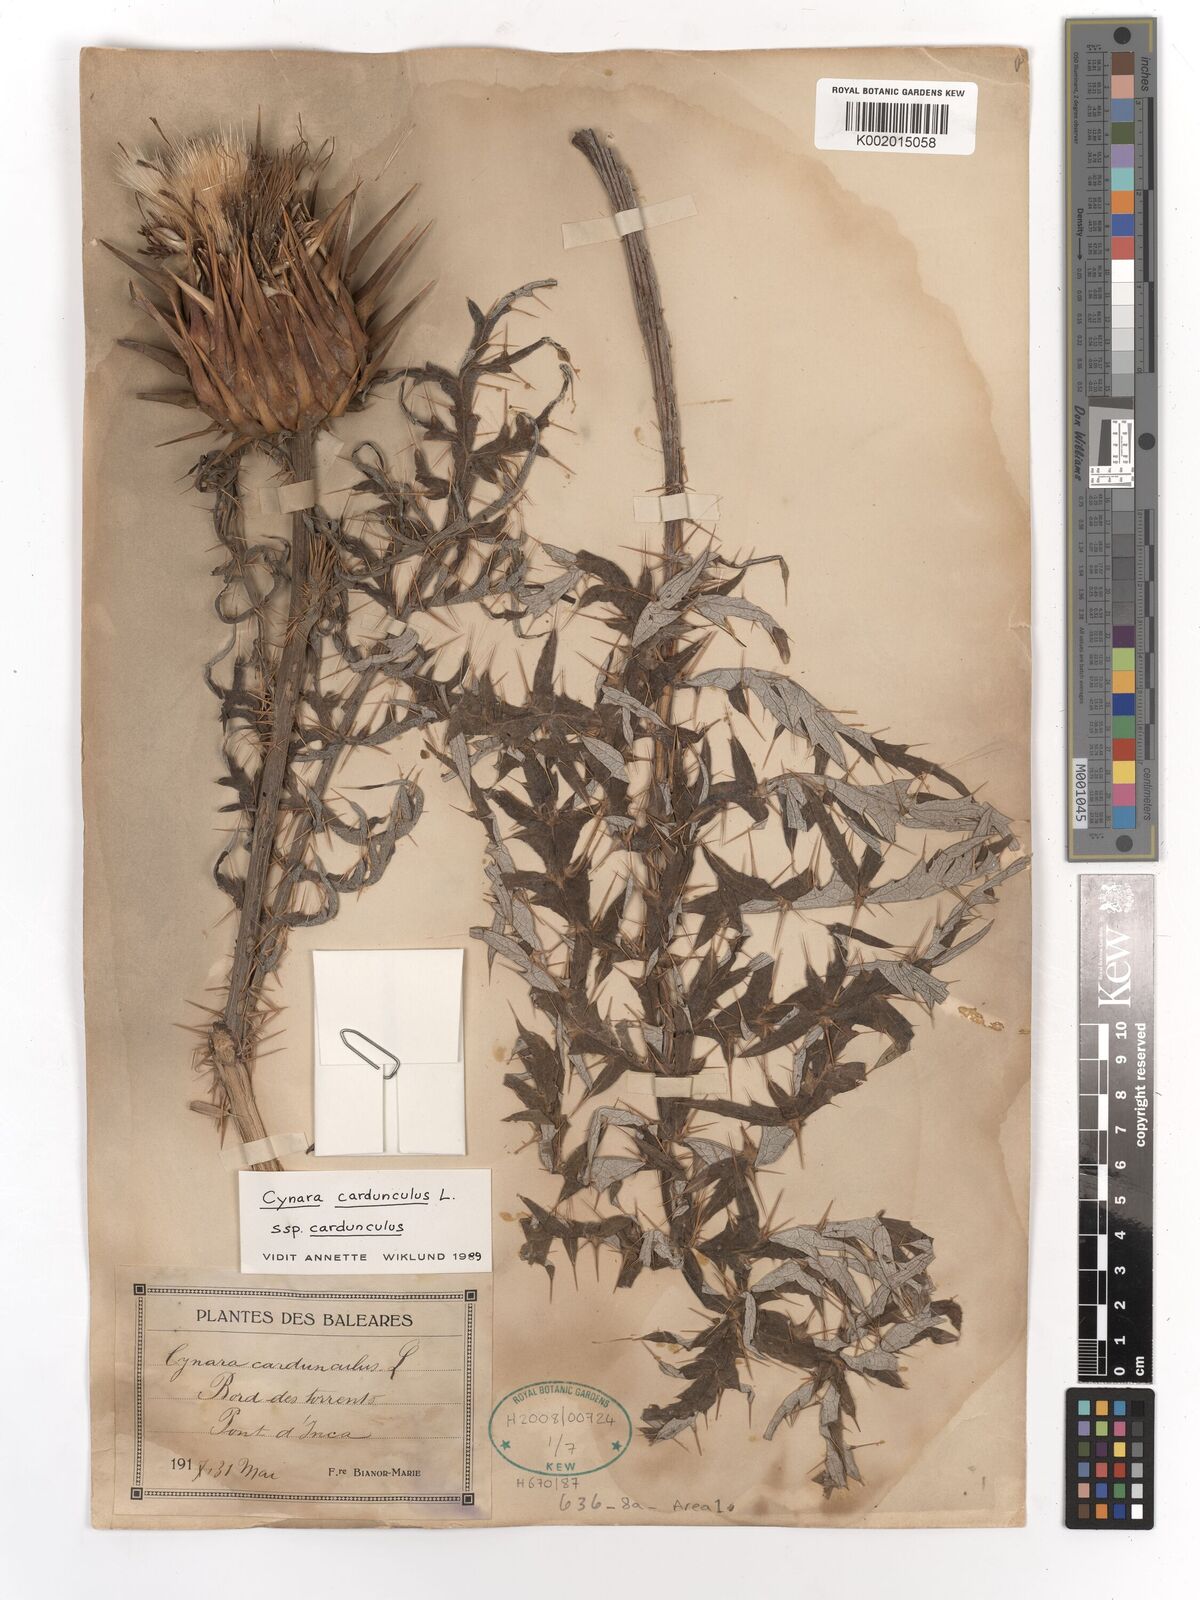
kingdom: Plantae
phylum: Tracheophyta
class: Magnoliopsida
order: Asterales
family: Asteraceae
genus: Cynara
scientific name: Cynara cardunculus
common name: Globe artichoke
